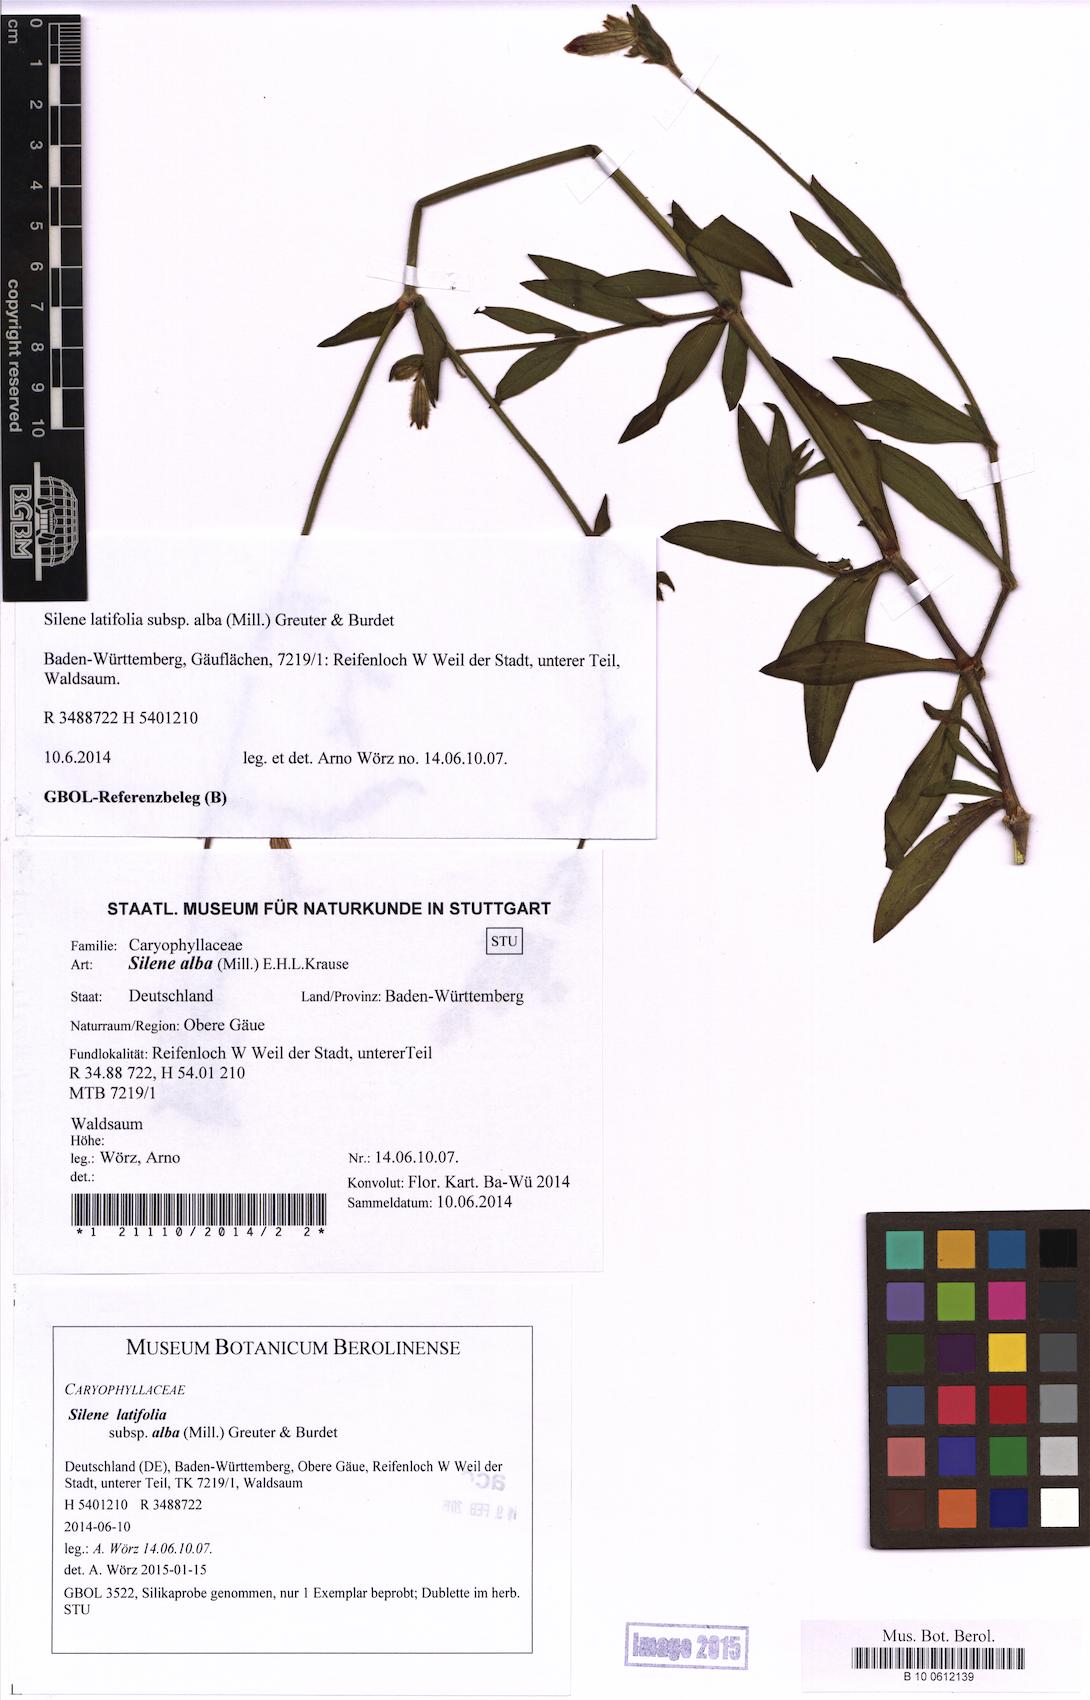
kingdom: Plantae
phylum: Tracheophyta
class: Magnoliopsida
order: Caryophyllales
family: Caryophyllaceae
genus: Silene
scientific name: Silene latifolia
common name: White campion
